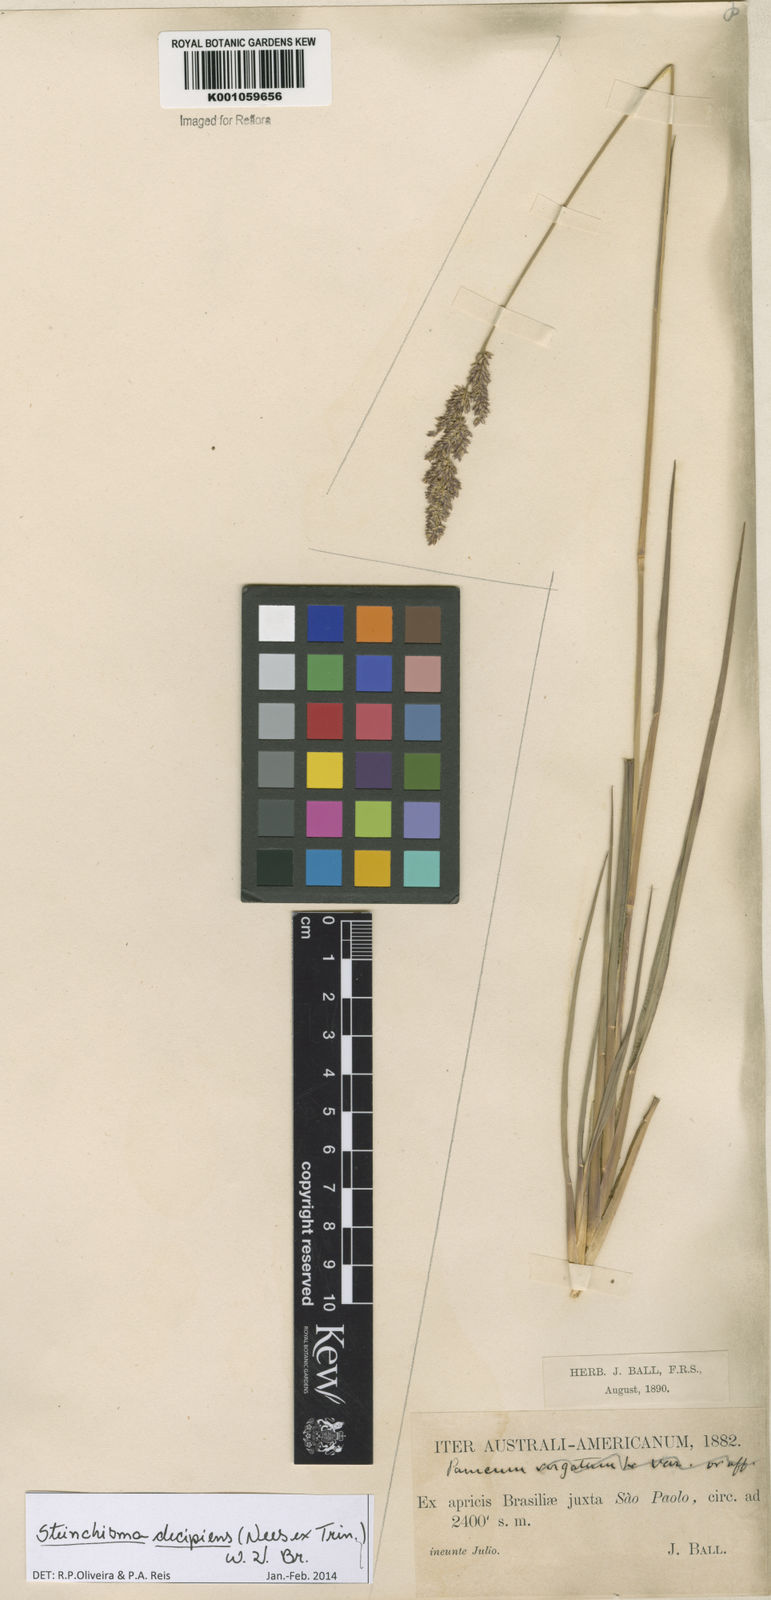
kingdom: Plantae
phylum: Tracheophyta
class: Liliopsida
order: Poales
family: Poaceae
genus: Steinchisma
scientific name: Steinchisma decipiens
